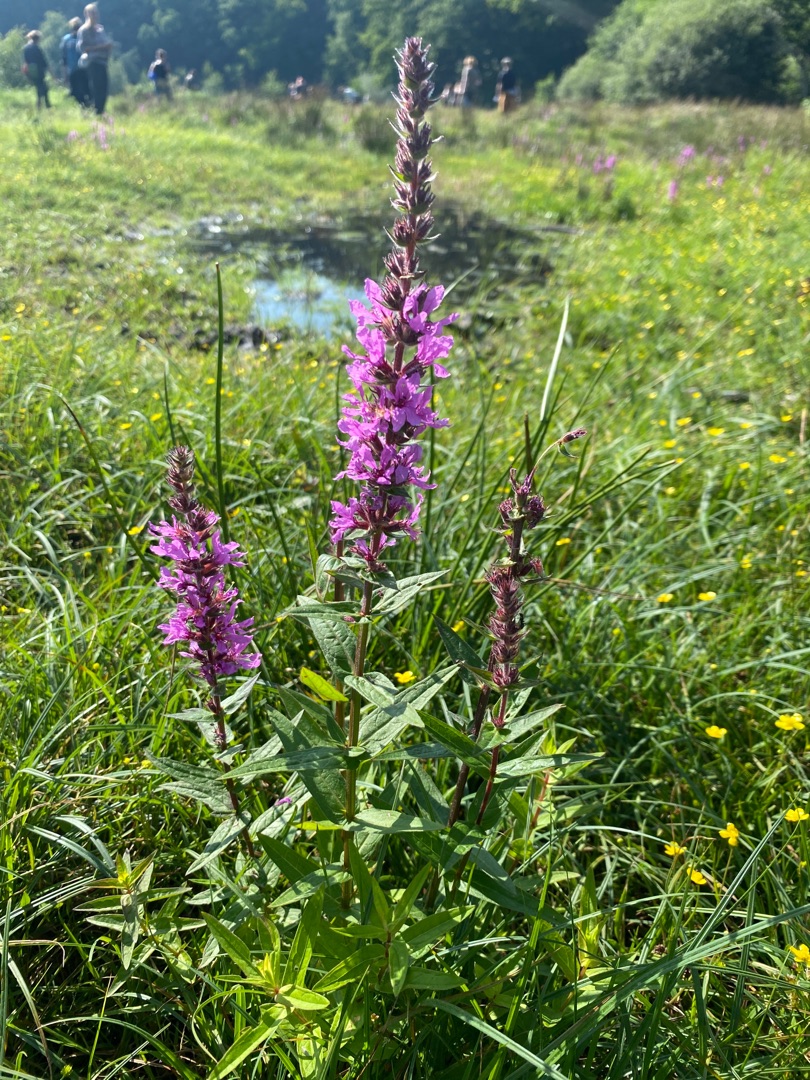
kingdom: Plantae
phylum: Tracheophyta
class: Magnoliopsida
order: Myrtales
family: Lythraceae
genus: Lythrum
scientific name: Lythrum salicaria
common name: Kattehale
